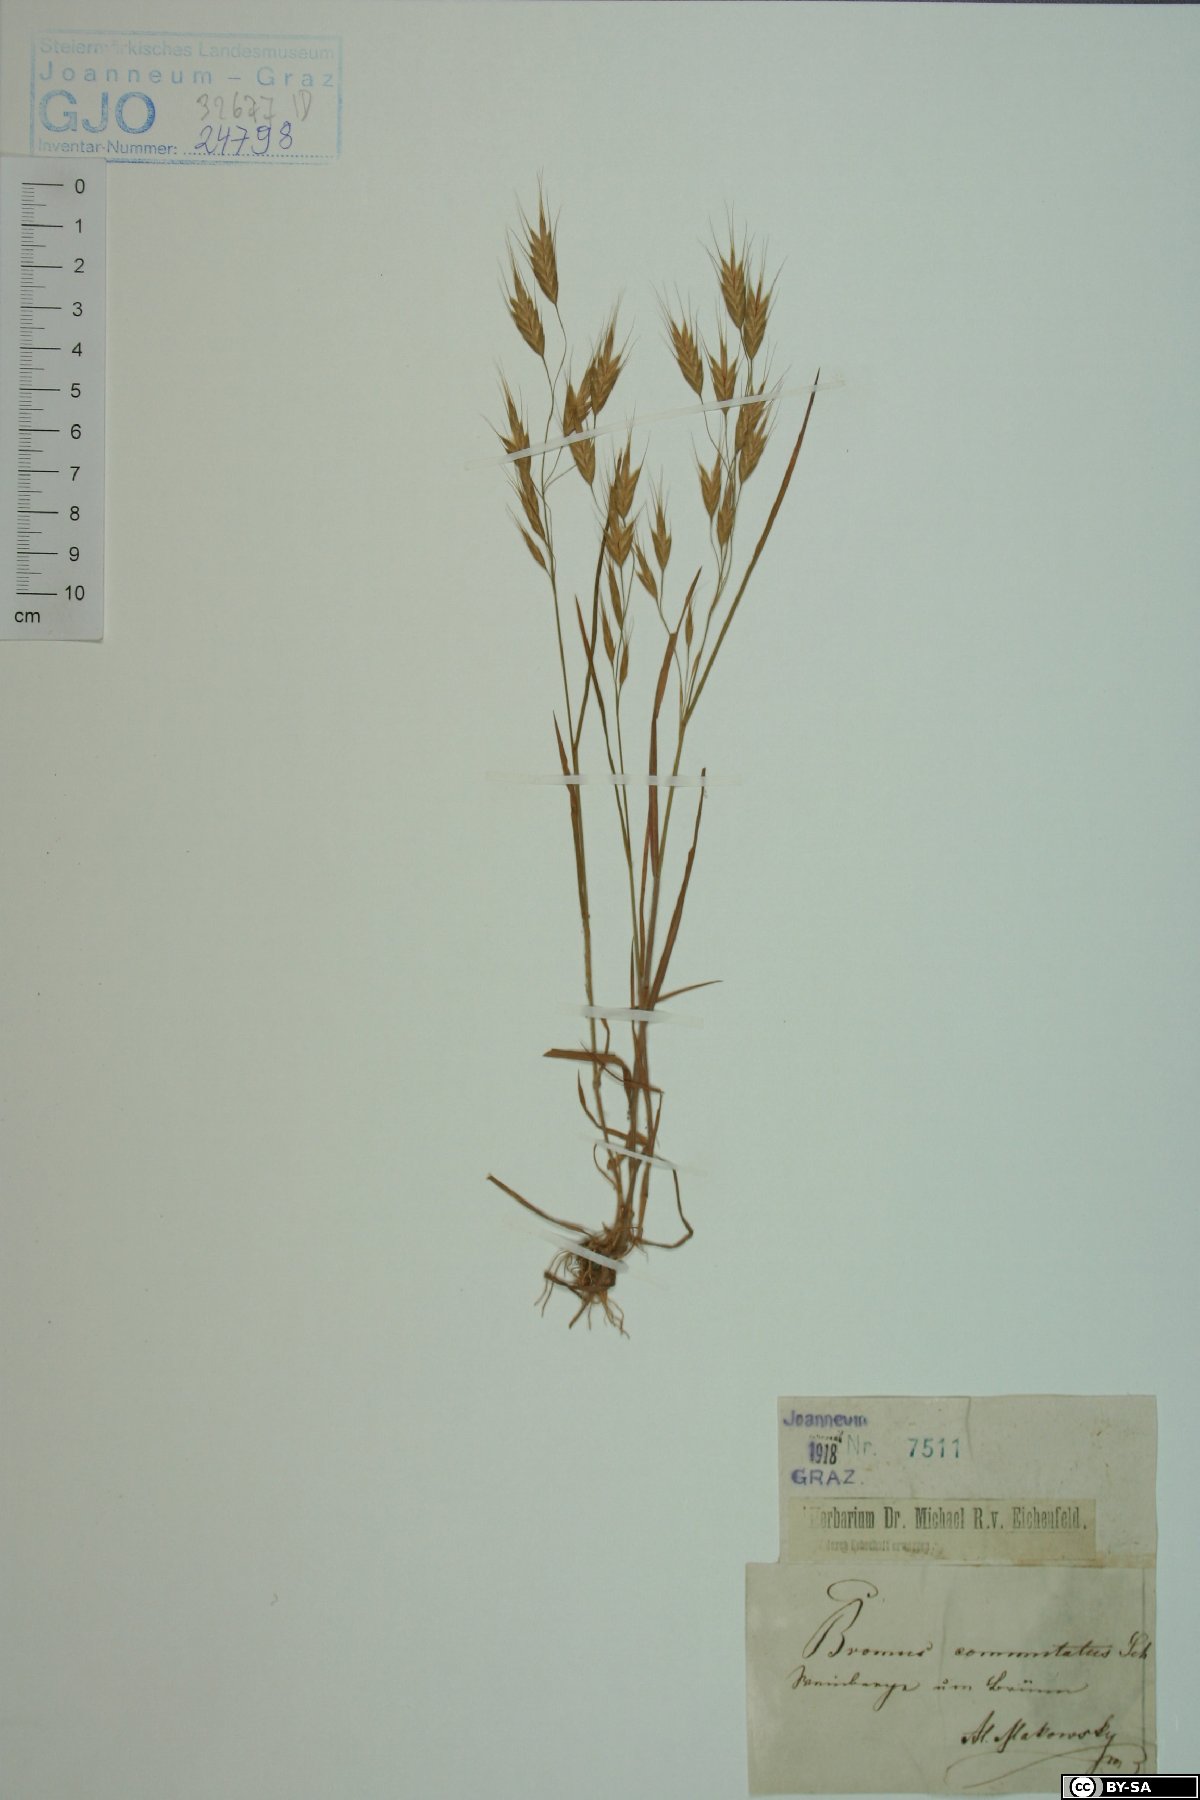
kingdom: Plantae
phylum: Tracheophyta
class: Liliopsida
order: Poales
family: Poaceae
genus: Bromus
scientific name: Bromus commutatus
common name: Meadow brome
